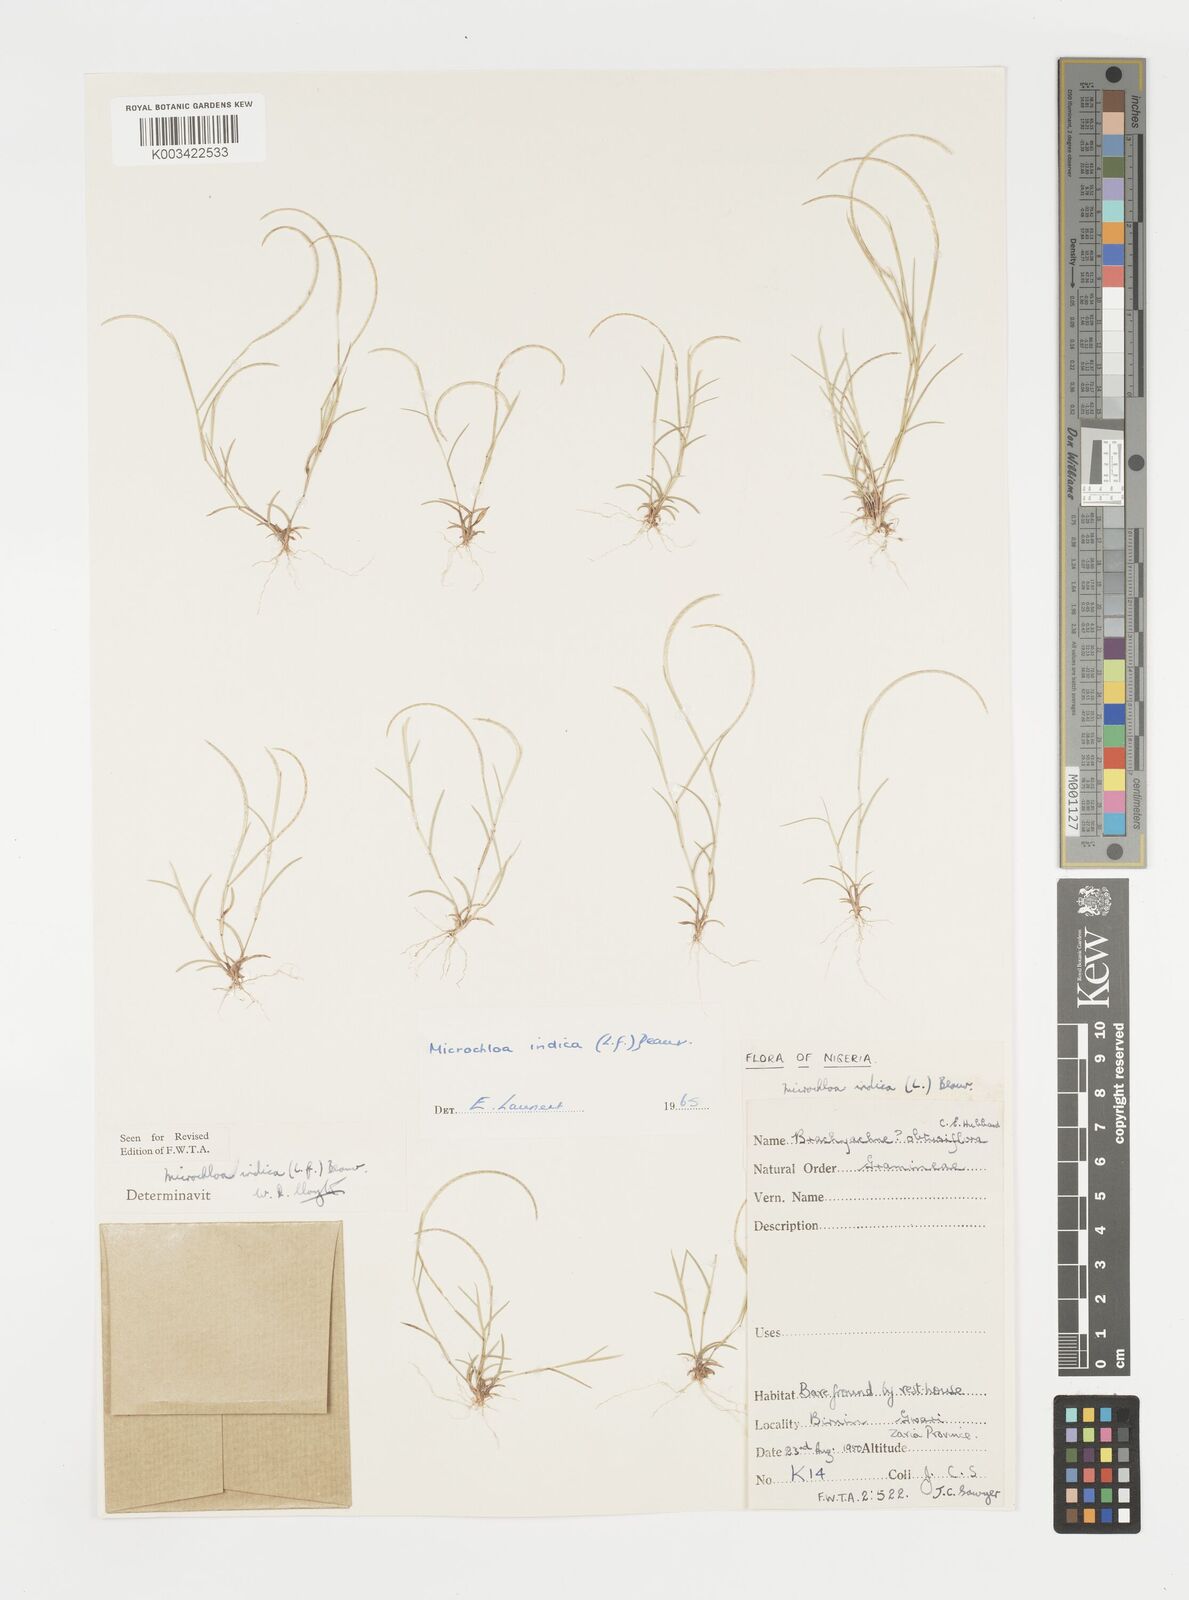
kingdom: Plantae
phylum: Tracheophyta
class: Liliopsida
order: Poales
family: Poaceae
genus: Microchloa
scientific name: Microchloa indica
